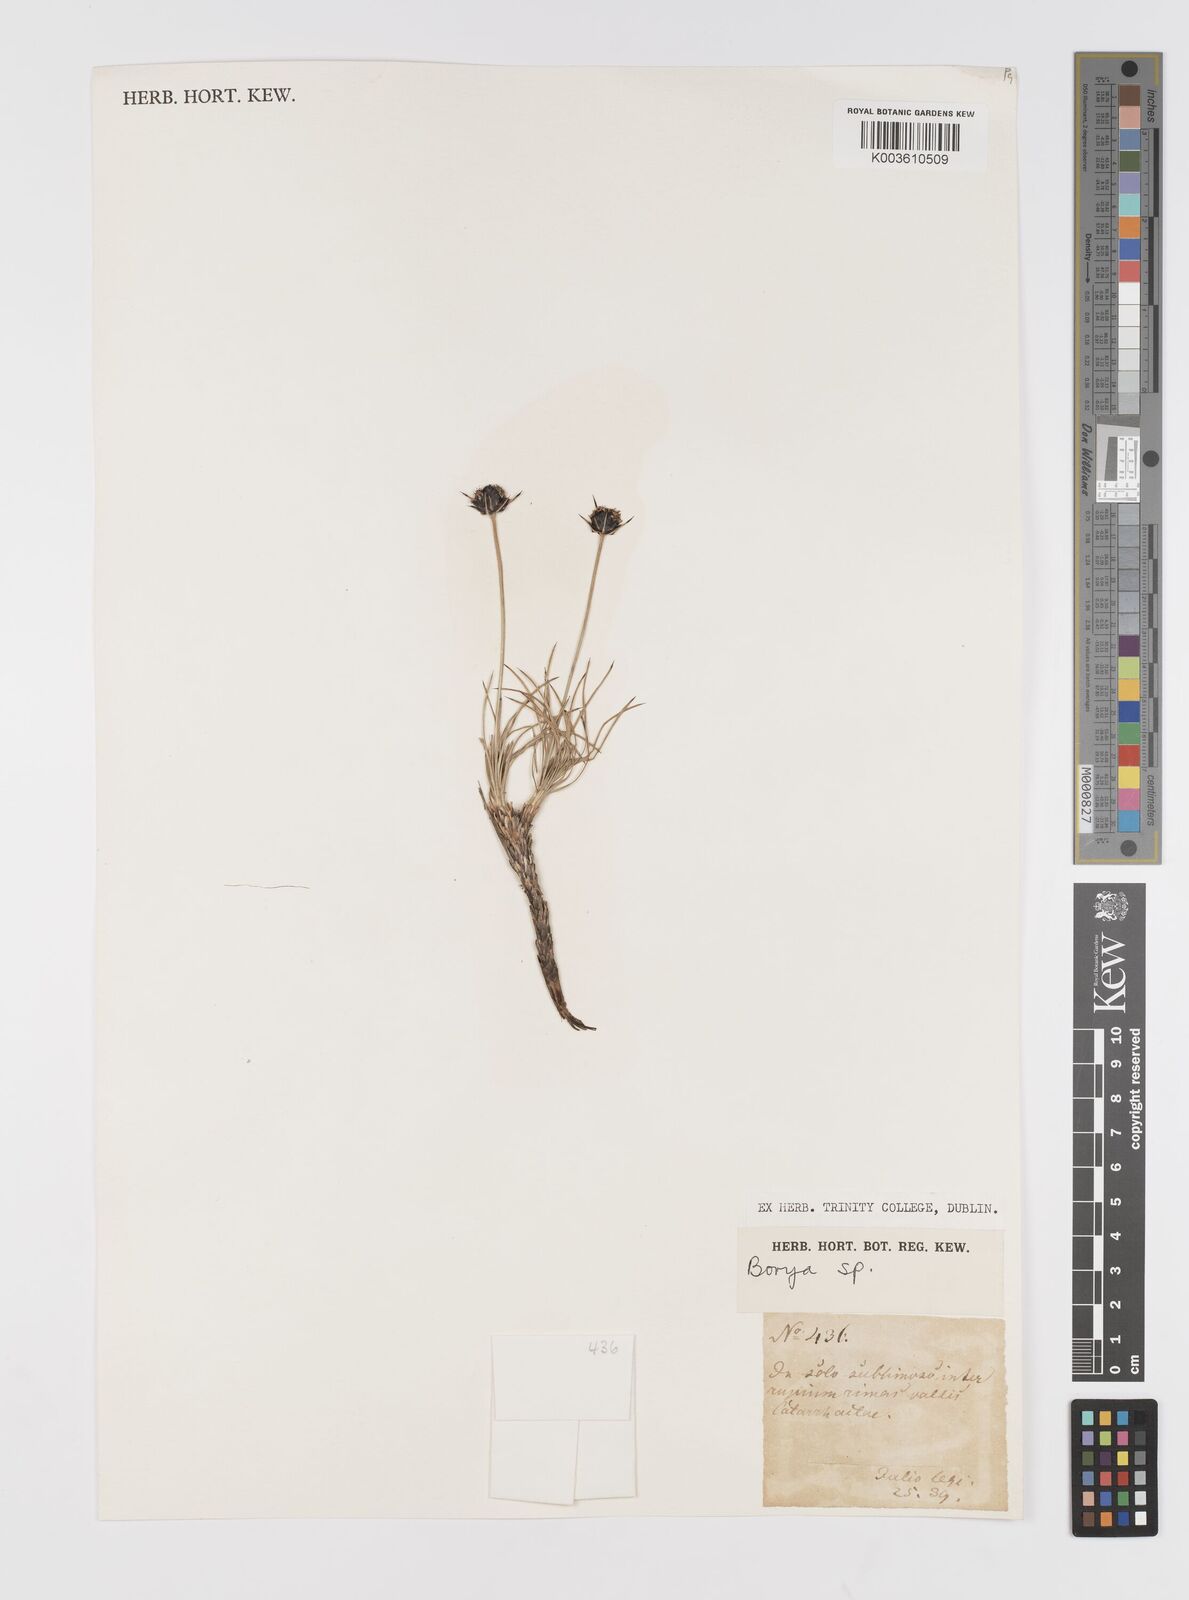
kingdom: Plantae
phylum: Tracheophyta
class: Liliopsida
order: Asparagales
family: Boryaceae
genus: Borya
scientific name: Borya nitida
